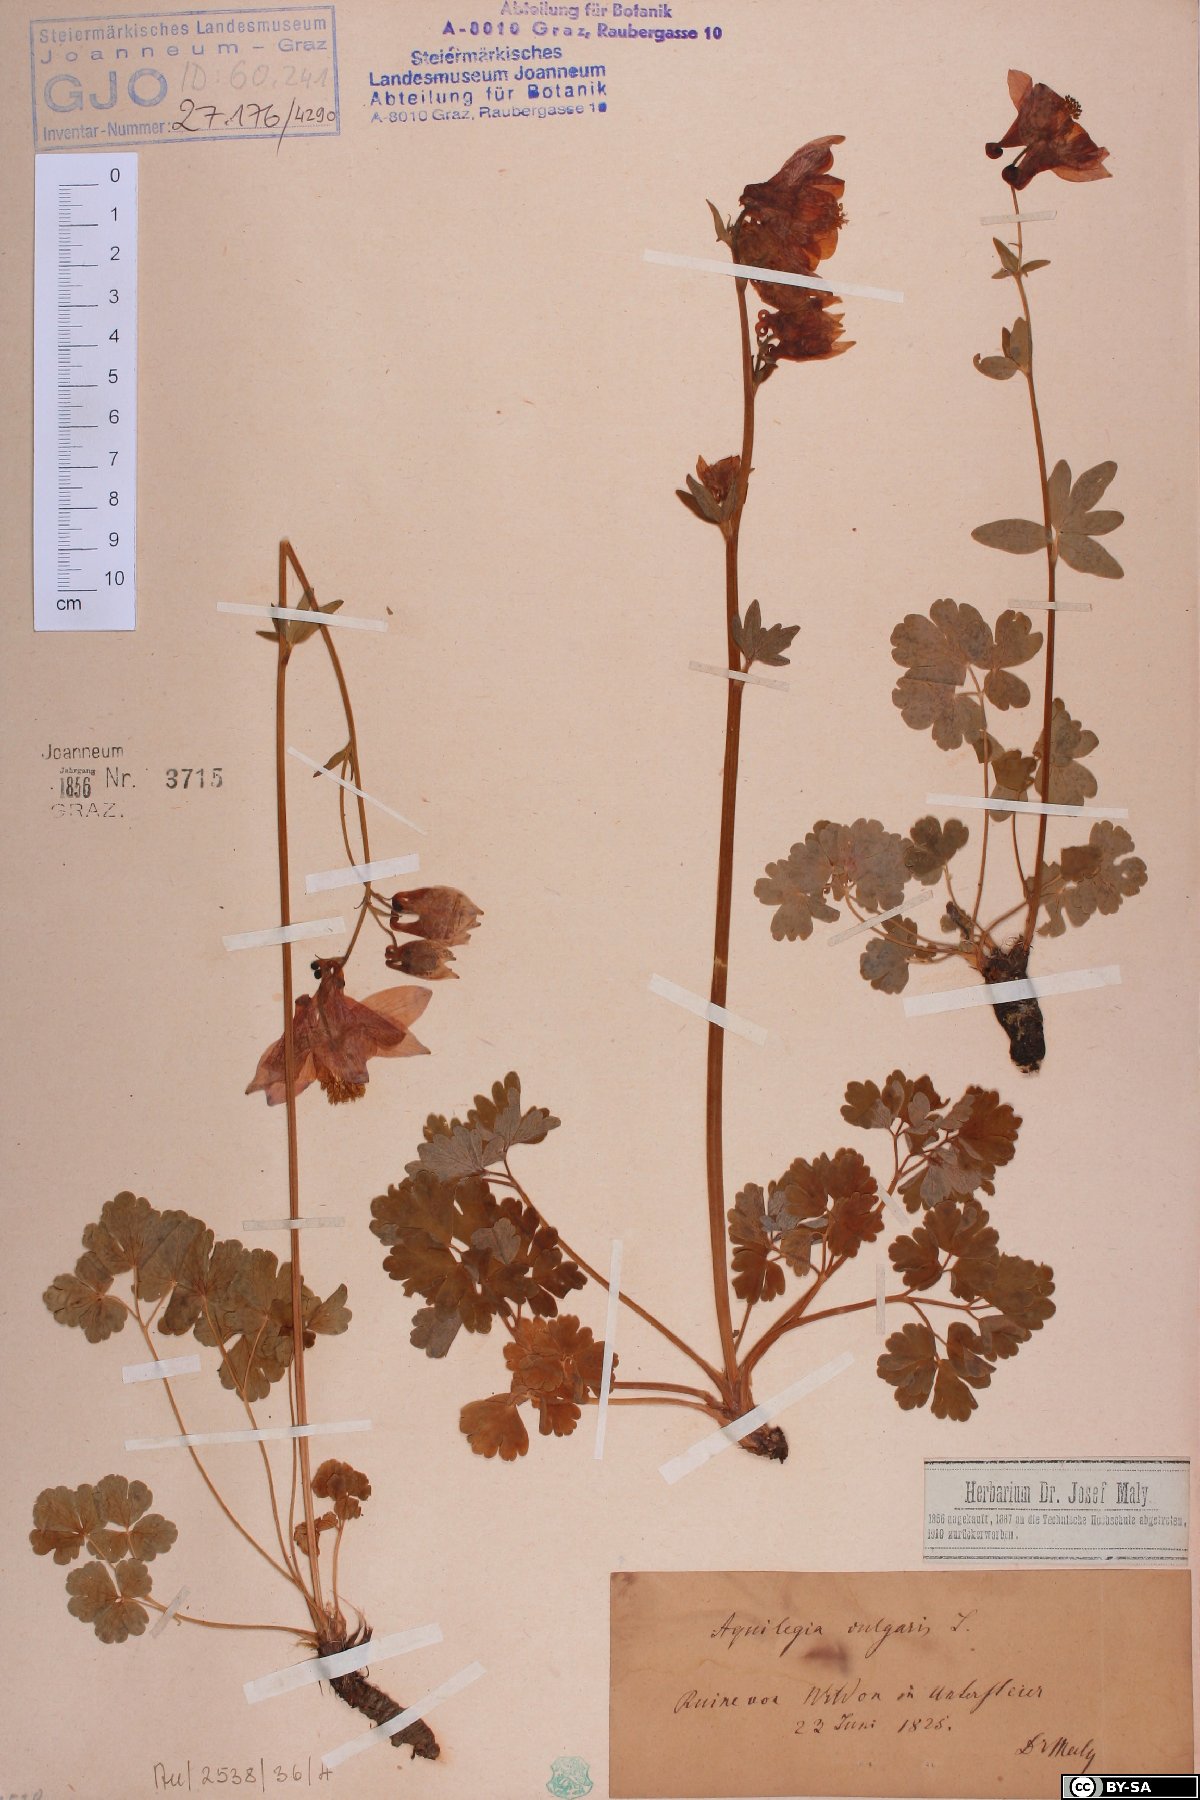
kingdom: Plantae
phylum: Tracheophyta
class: Magnoliopsida
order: Ranunculales
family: Ranunculaceae
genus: Aquilegia
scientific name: Aquilegia vulgaris
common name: Columbine
